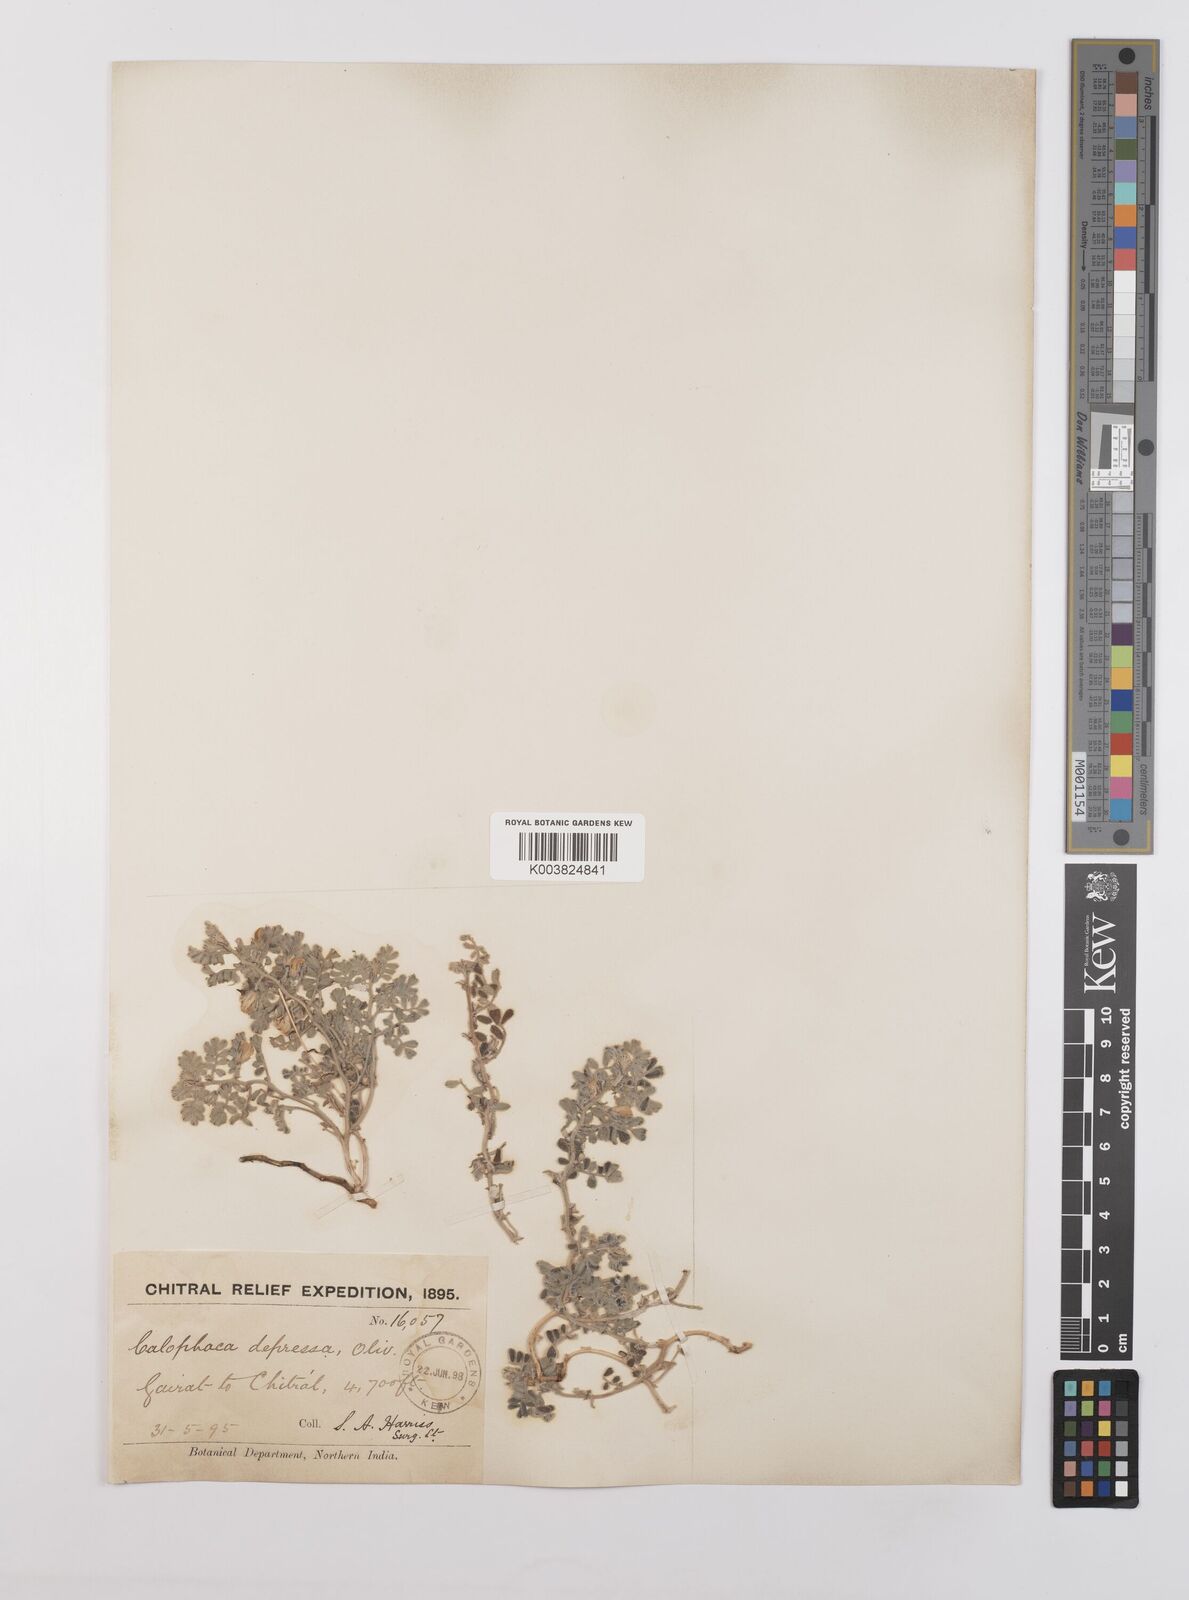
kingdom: Plantae
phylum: Tracheophyta
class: Magnoliopsida
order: Fabales
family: Fabaceae
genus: Chesneya
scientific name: Chesneya depressa
